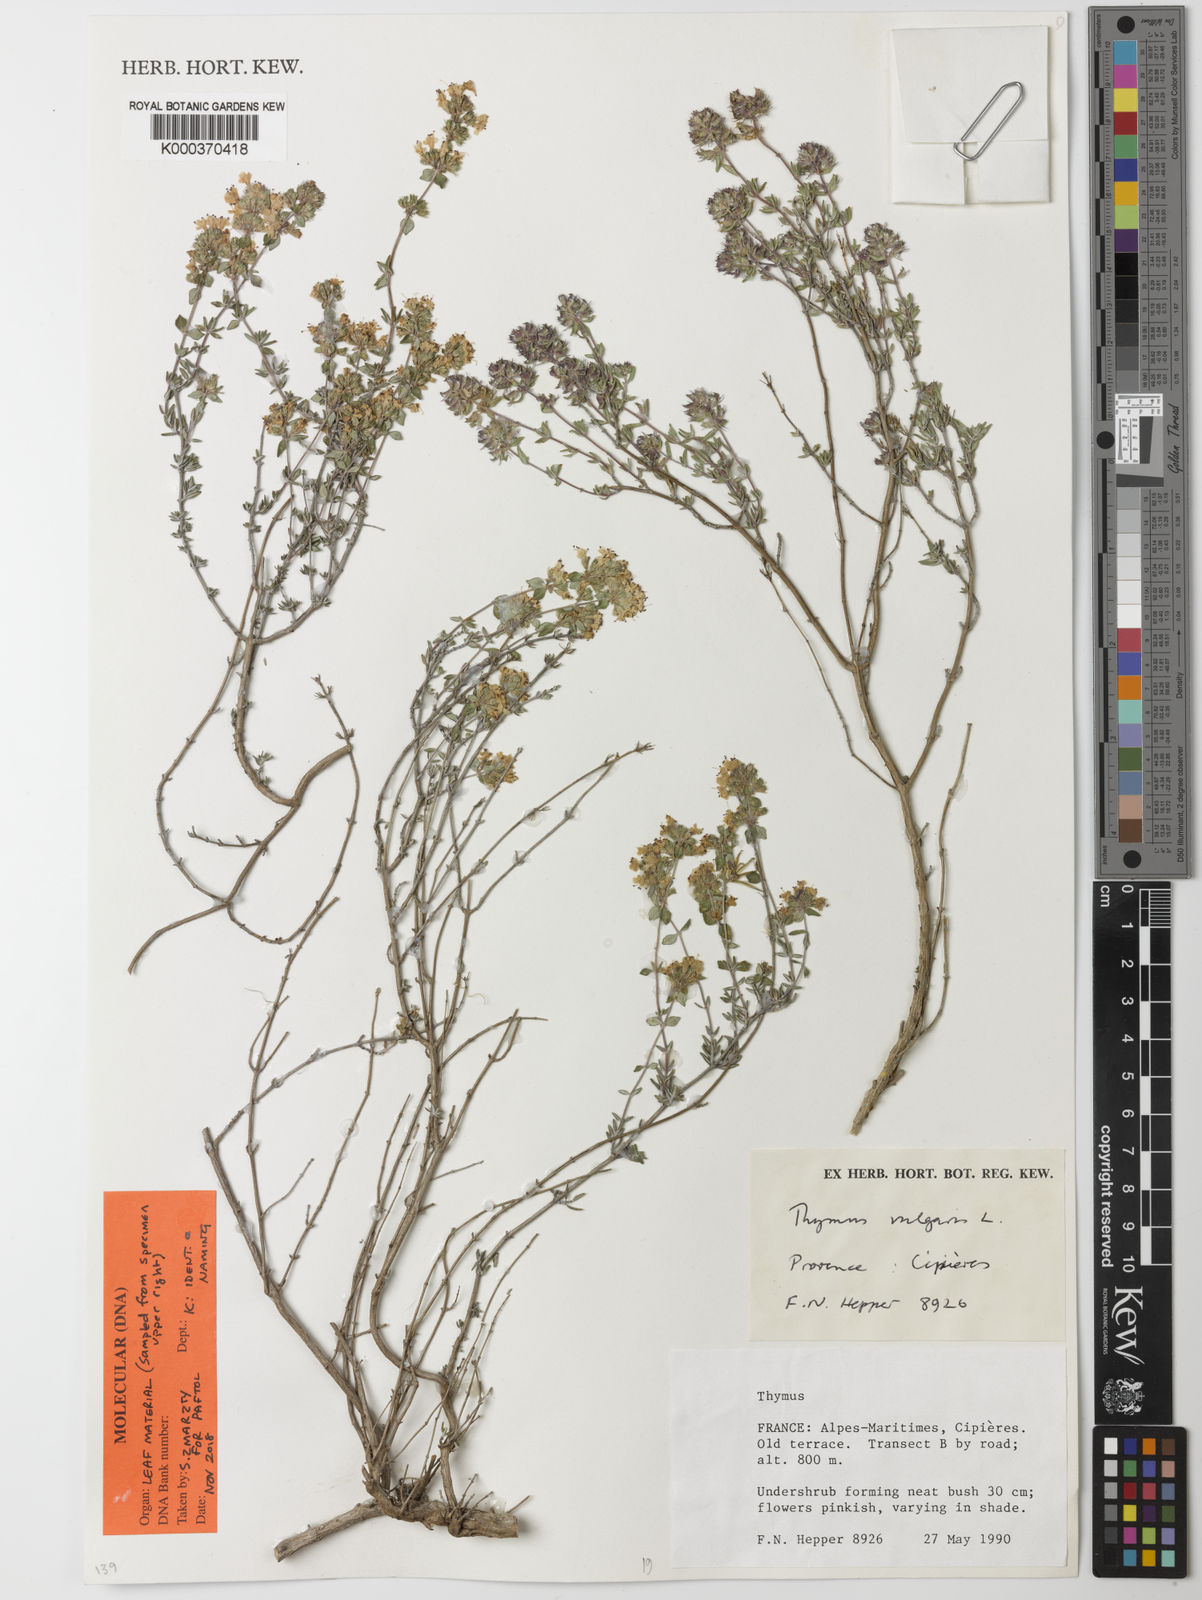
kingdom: Plantae
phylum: Tracheophyta
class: Magnoliopsida
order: Lamiales
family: Lamiaceae
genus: Thymus
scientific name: Thymus vulgaris
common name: Garden thyme
